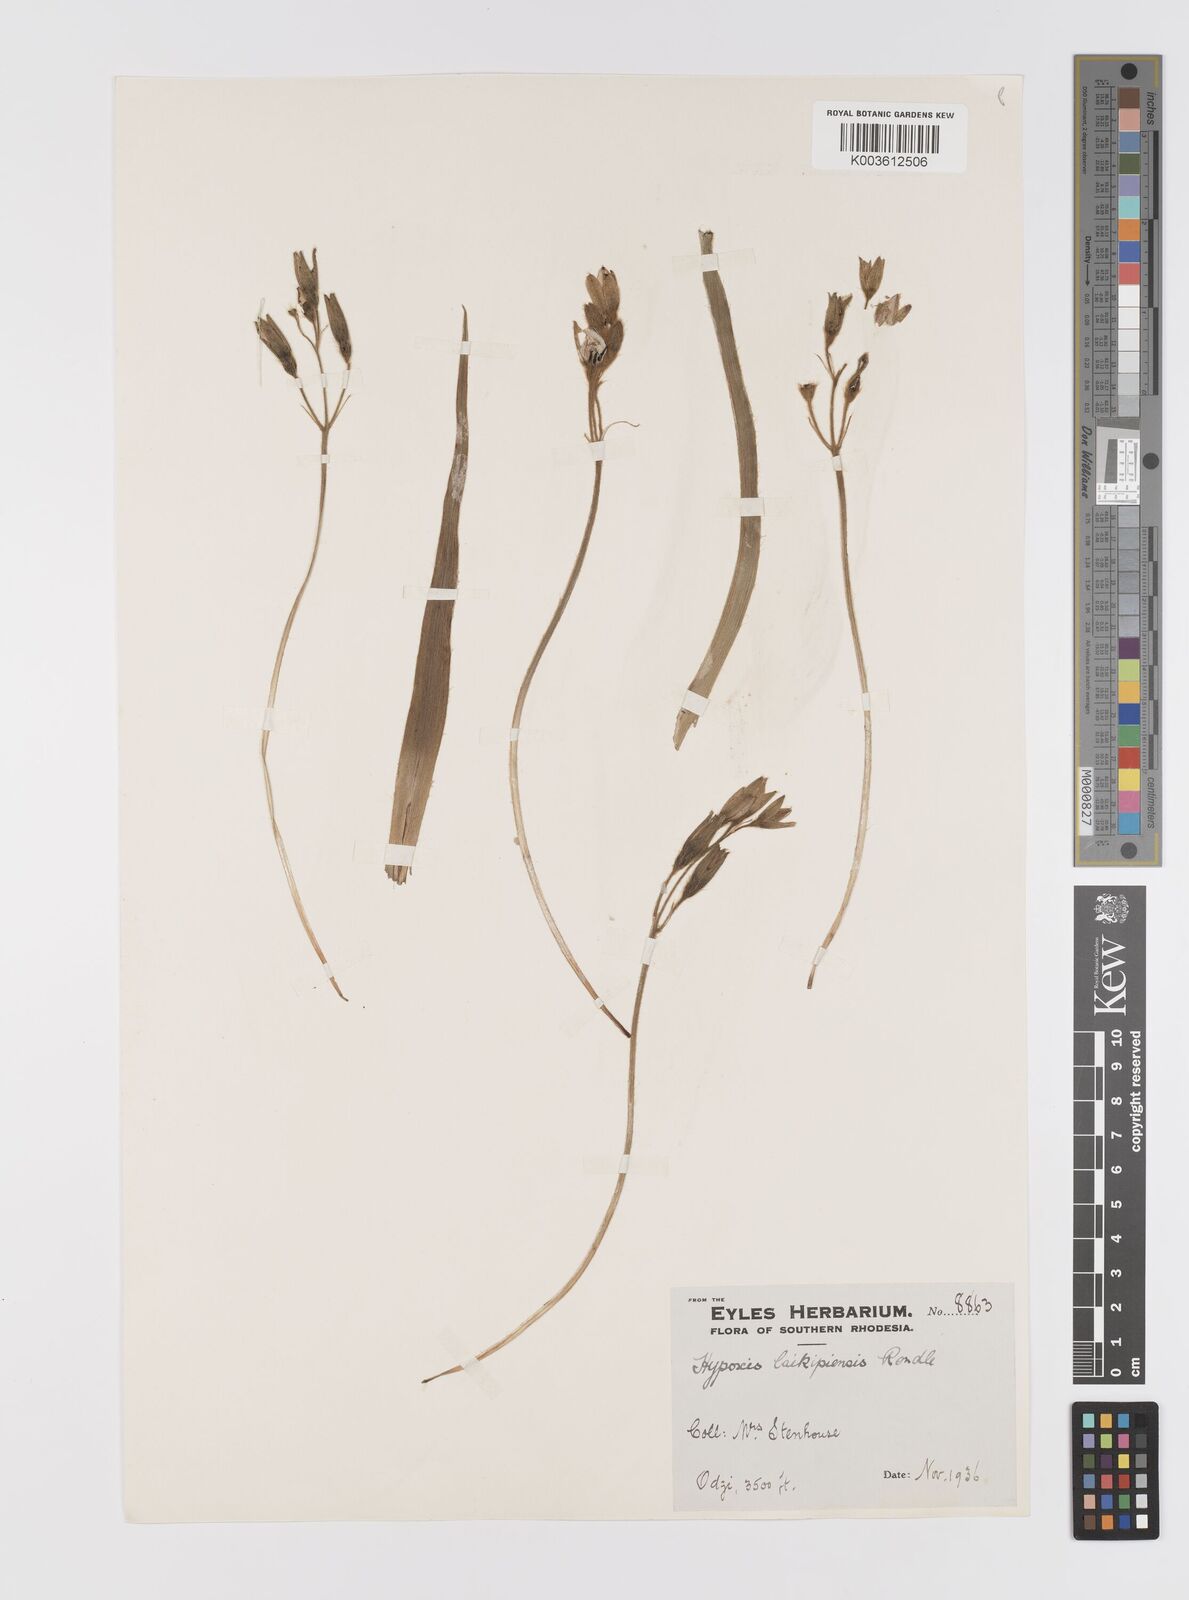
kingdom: Plantae
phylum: Tracheophyta
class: Liliopsida
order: Asparagales
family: Hypoxidaceae
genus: Hypoxis
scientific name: Hypoxis nyasica
